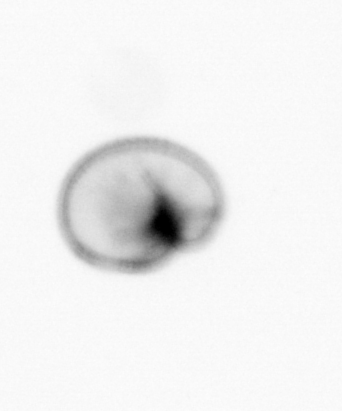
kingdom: Chromista
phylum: Myzozoa
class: Dinophyceae
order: Noctilucales
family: Noctilucaceae
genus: Noctiluca
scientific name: Noctiluca scintillans
